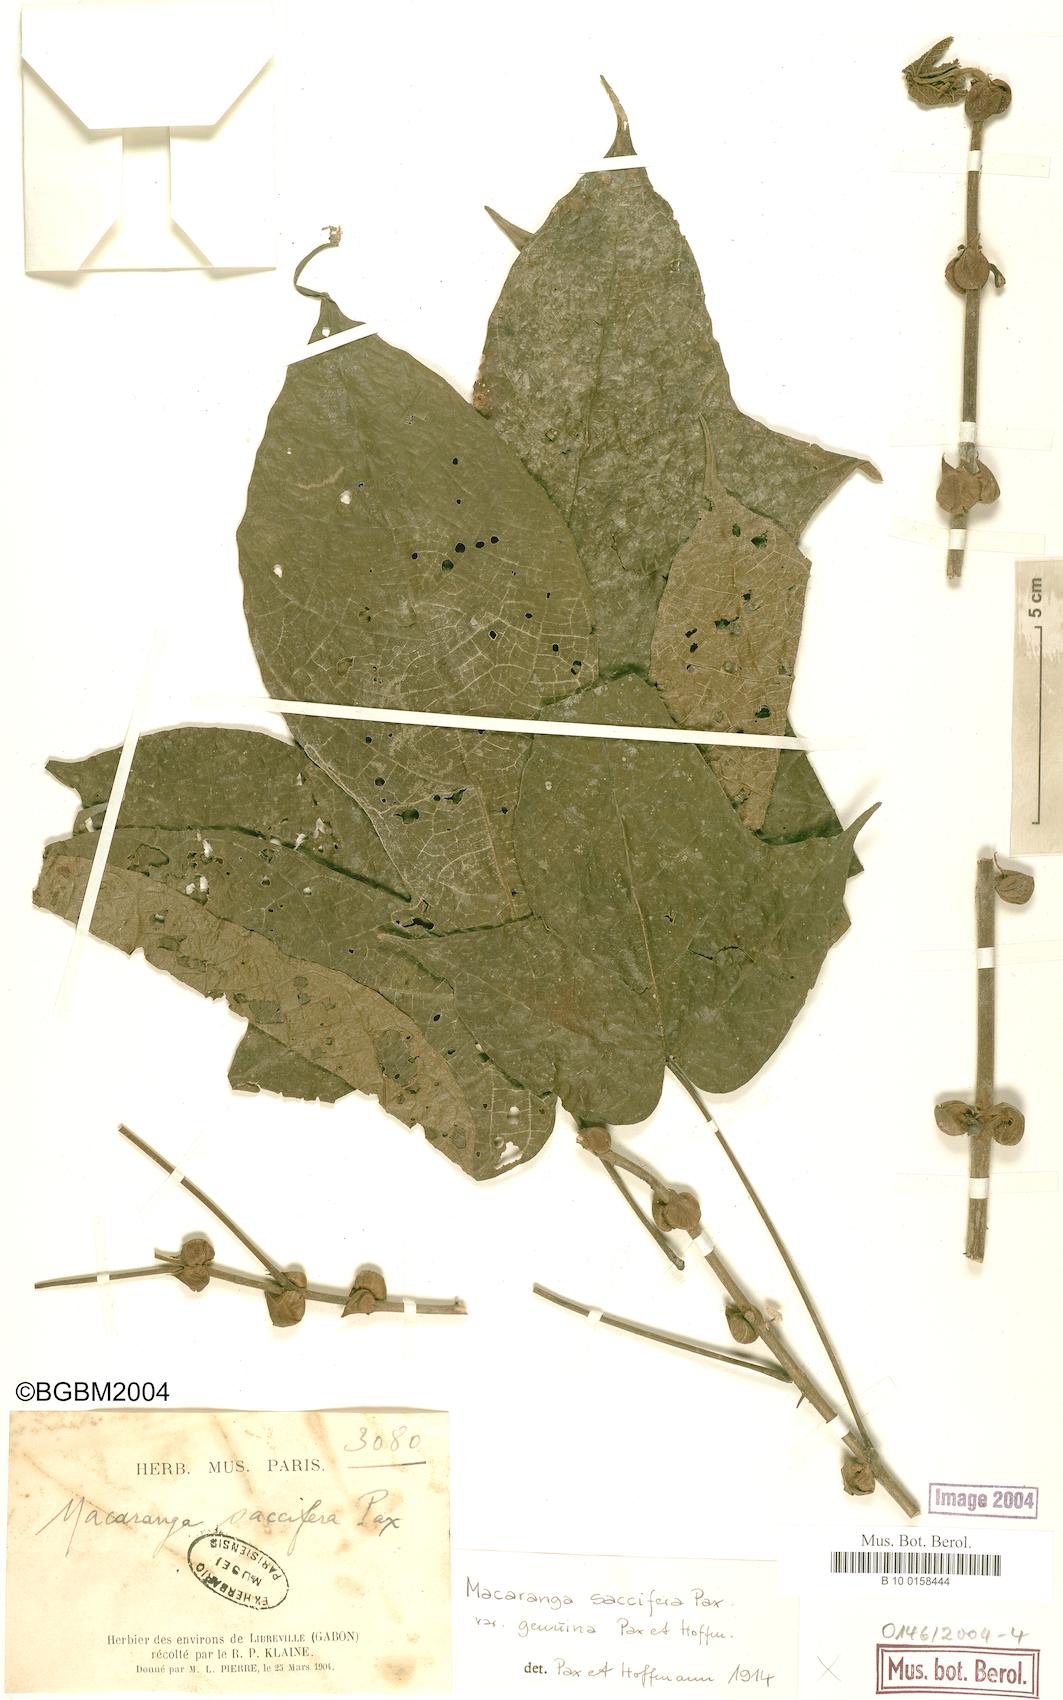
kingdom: Plantae
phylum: Tracheophyta
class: Magnoliopsida
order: Malpighiales
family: Euphorbiaceae
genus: Macaranga
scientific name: Macaranga saccifera
